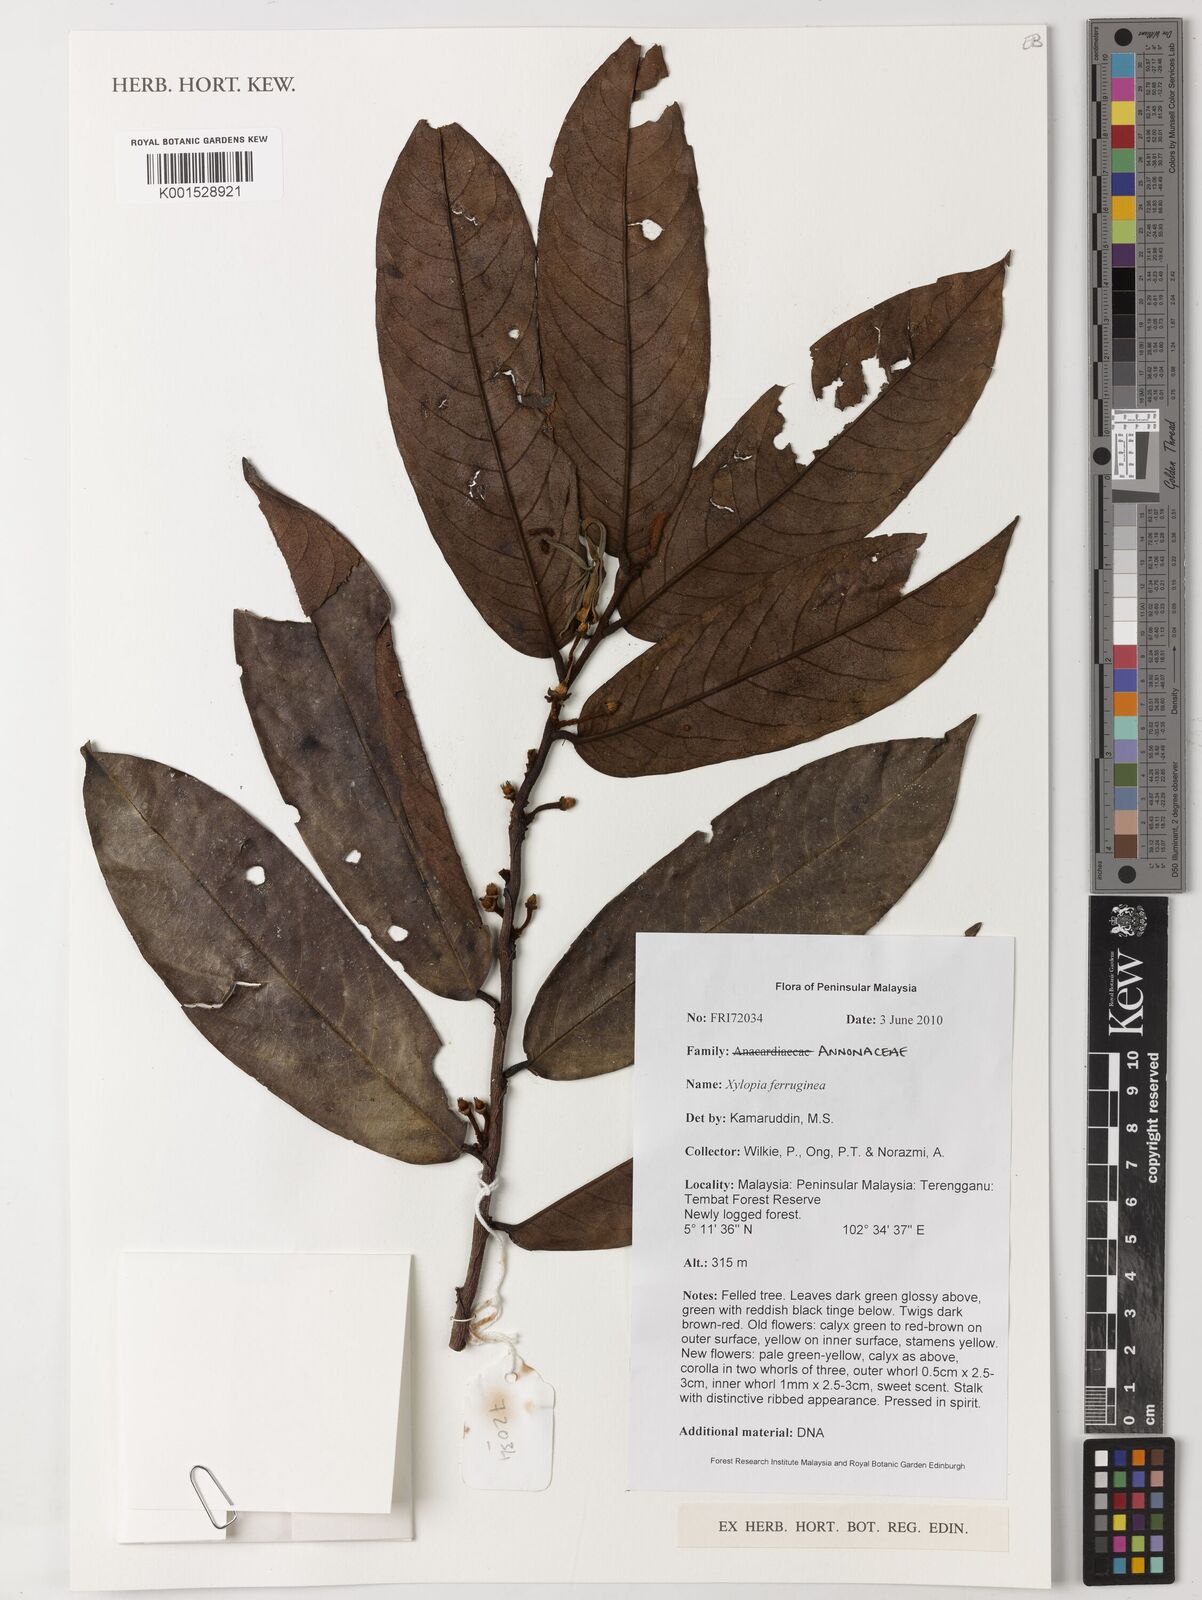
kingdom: Plantae
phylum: Tracheophyta
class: Magnoliopsida
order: Magnoliales
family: Annonaceae
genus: Xylopia
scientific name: Xylopia ferruginea
